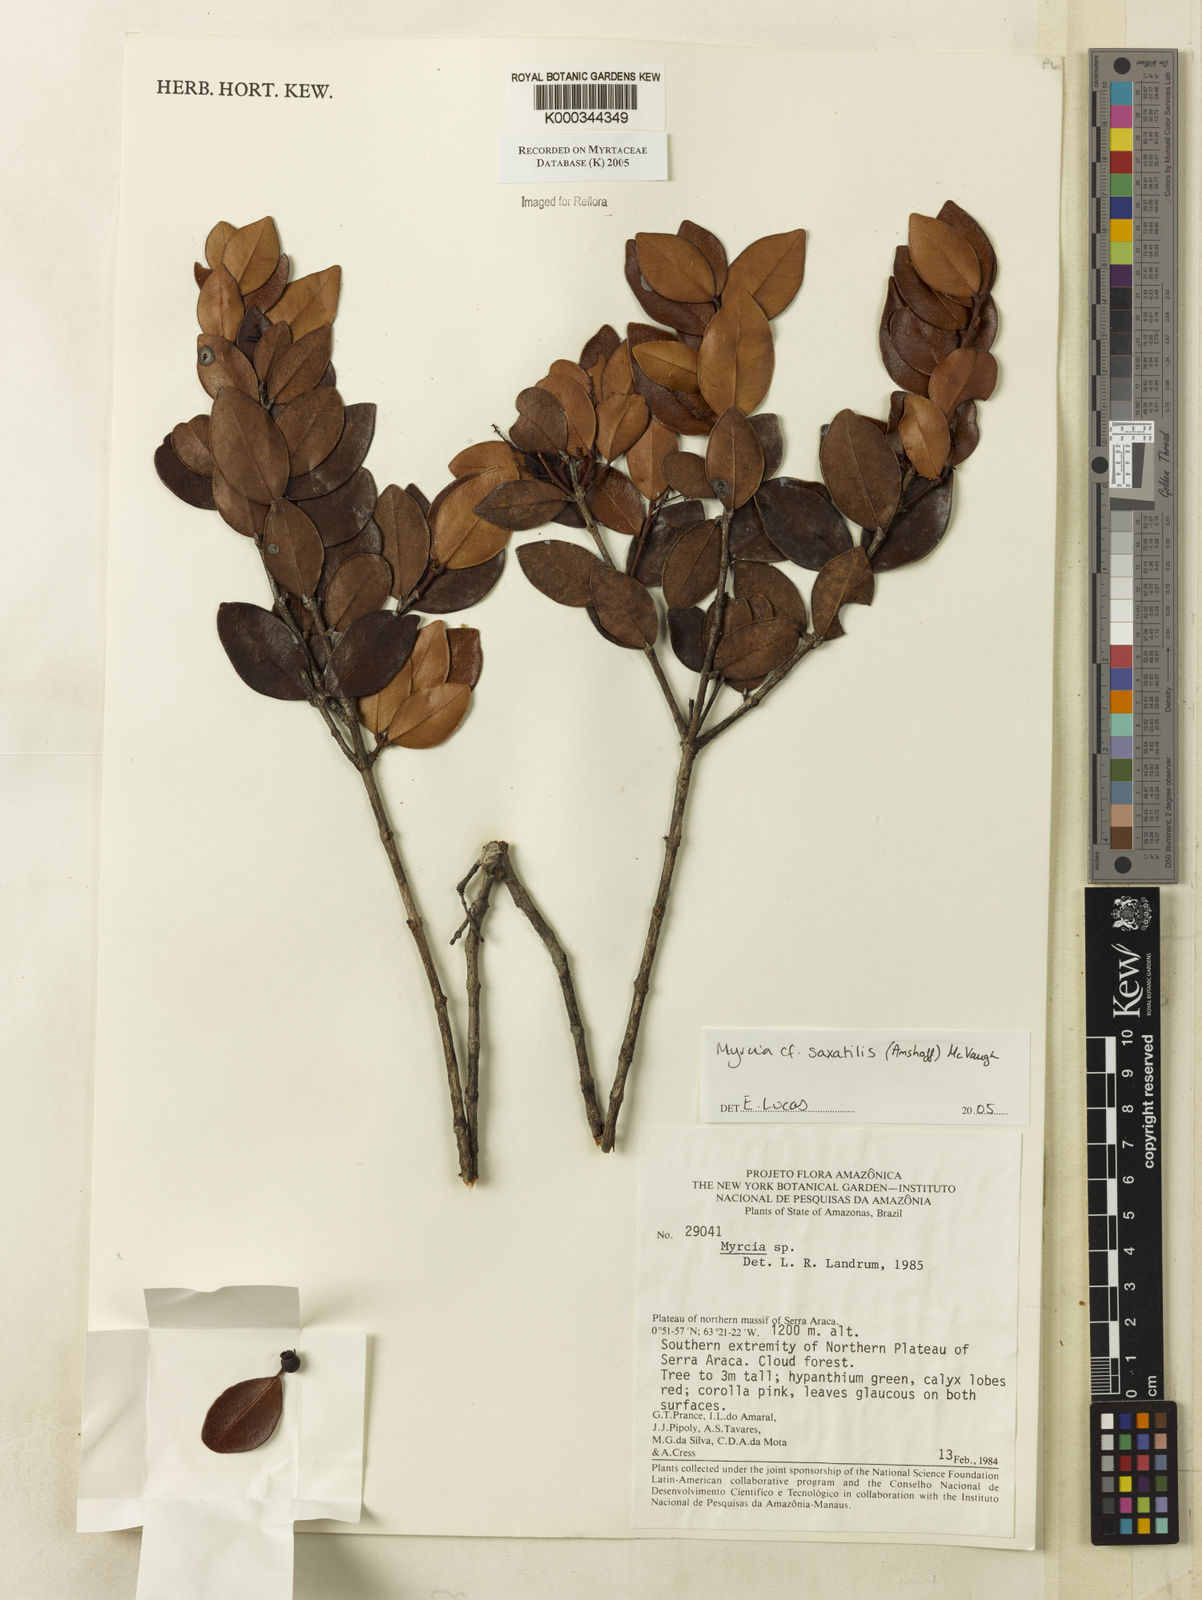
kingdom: Plantae
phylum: Tracheophyta
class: Magnoliopsida
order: Myrtales
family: Myrtaceae
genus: Myrcia
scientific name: Myrcia saxatilis
